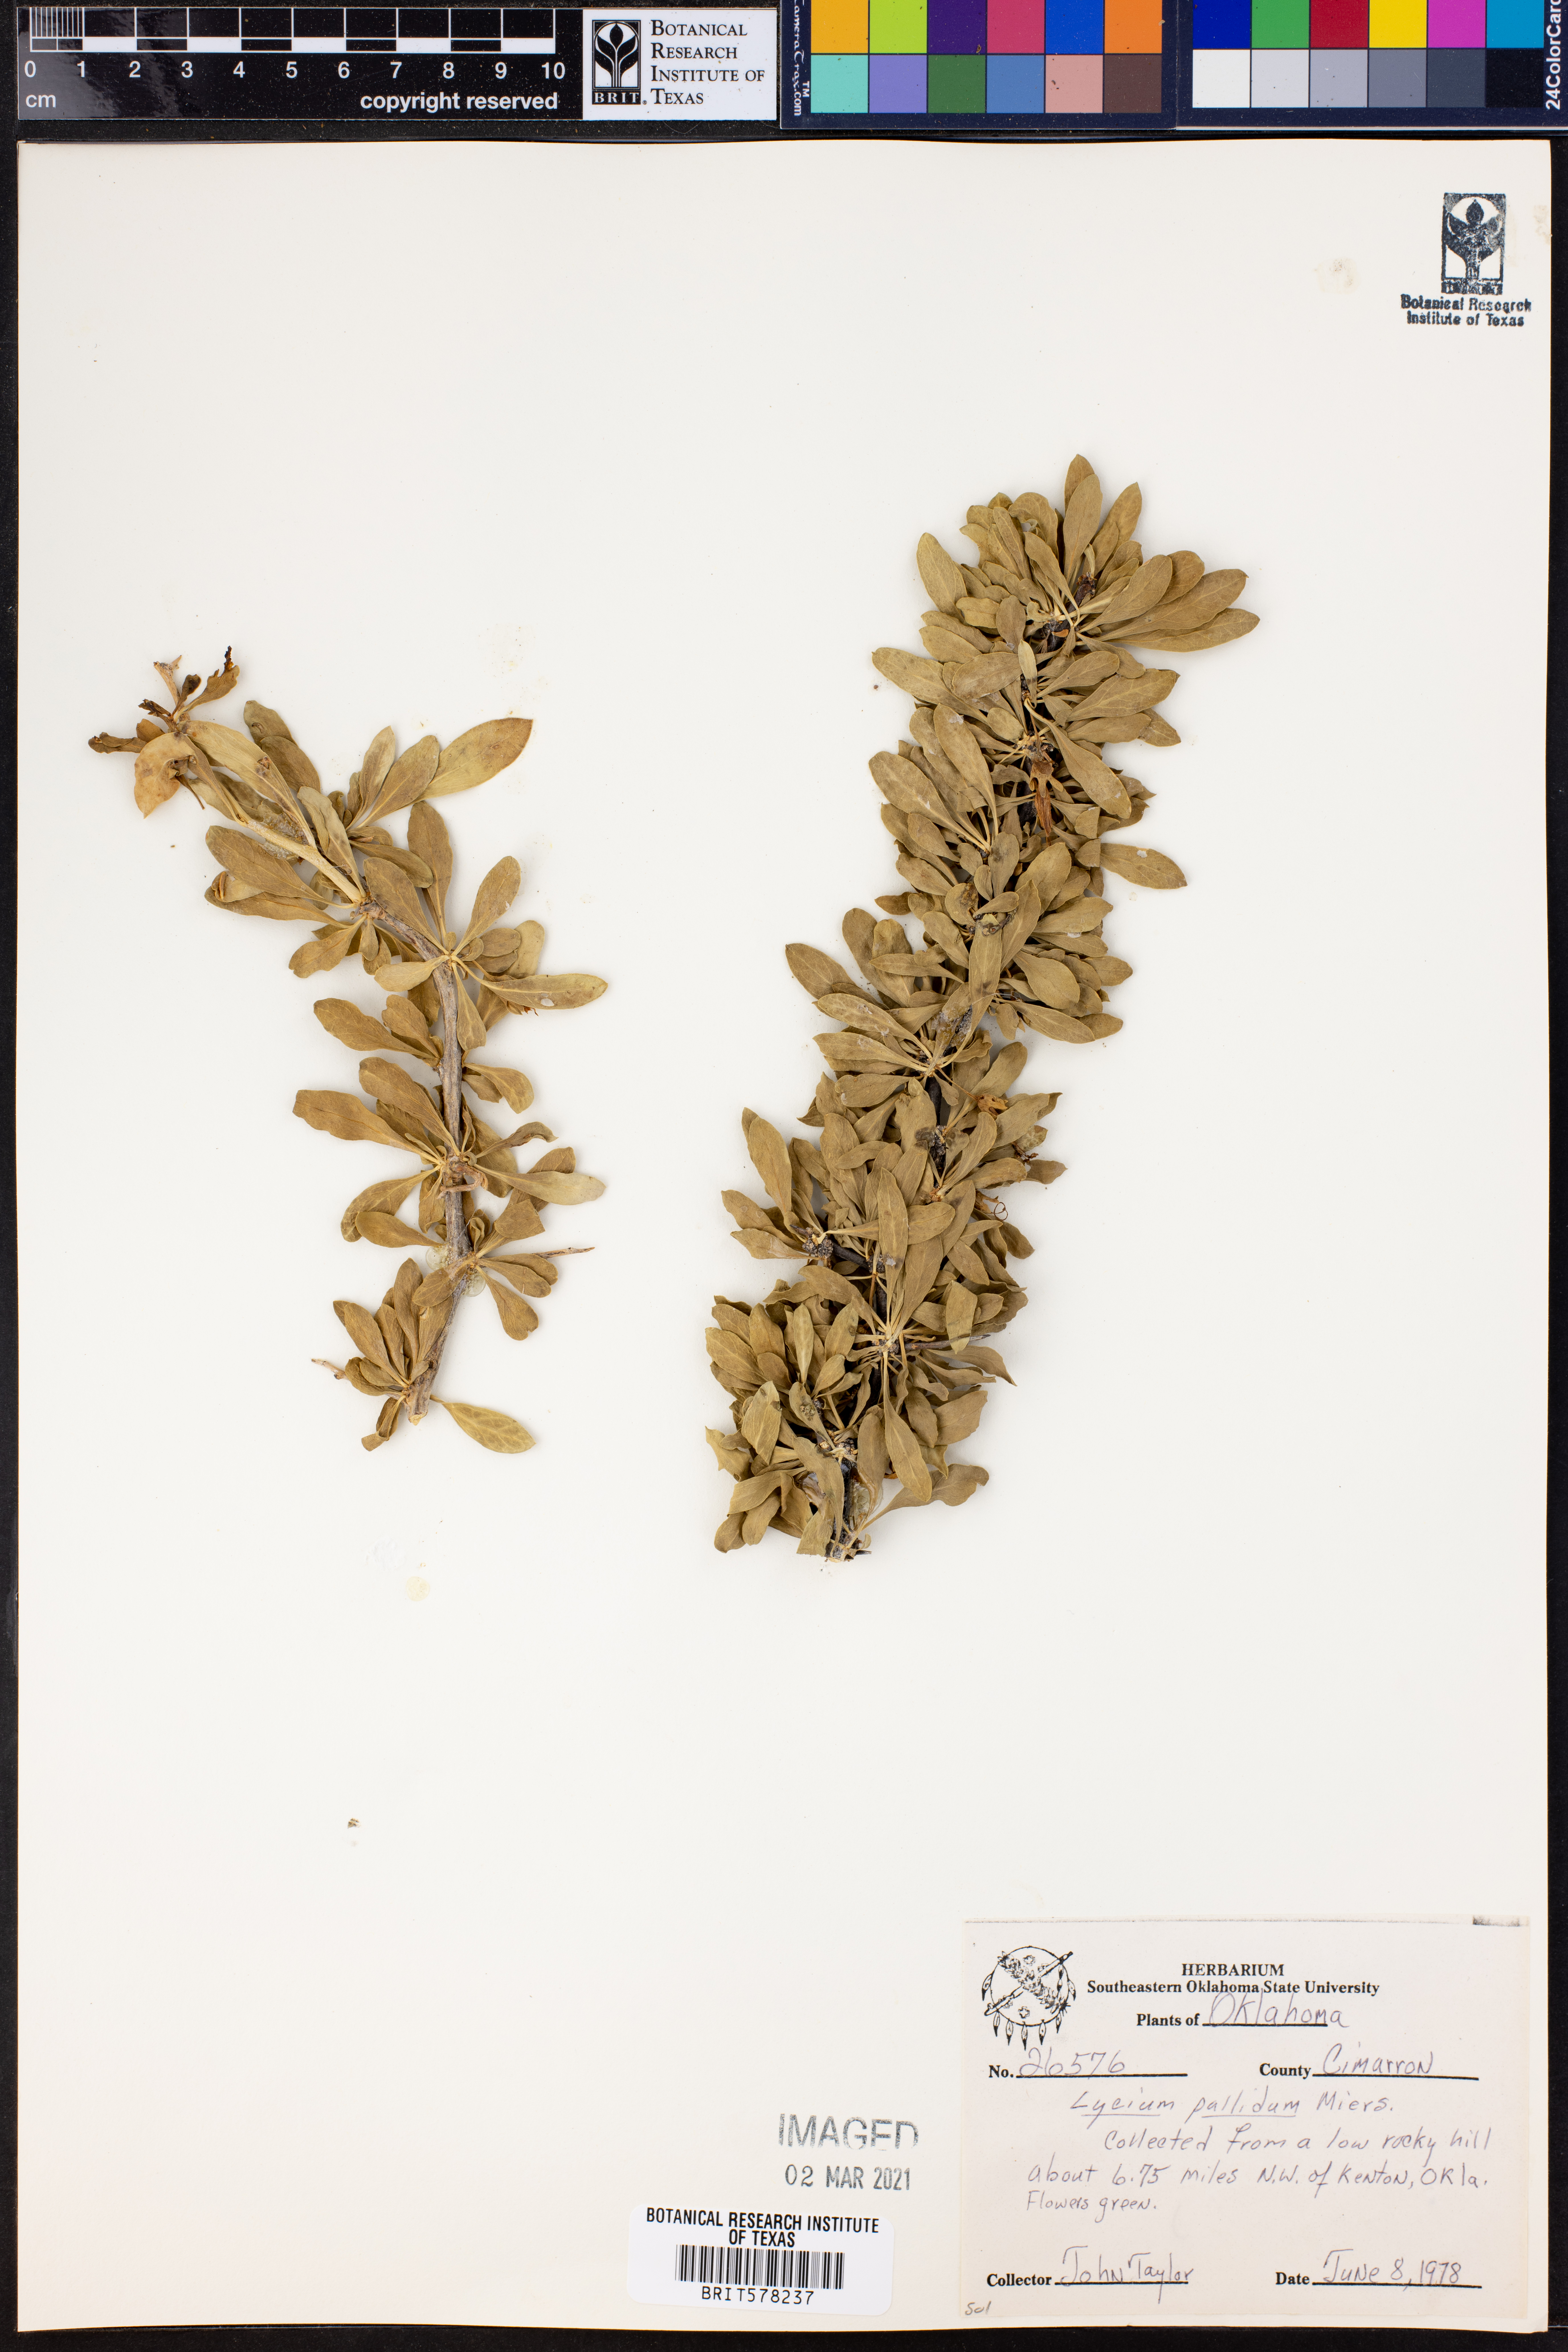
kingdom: Plantae
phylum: Tracheophyta
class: Magnoliopsida
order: Solanales
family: Solanaceae
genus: Lycium
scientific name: Lycium pallidum
